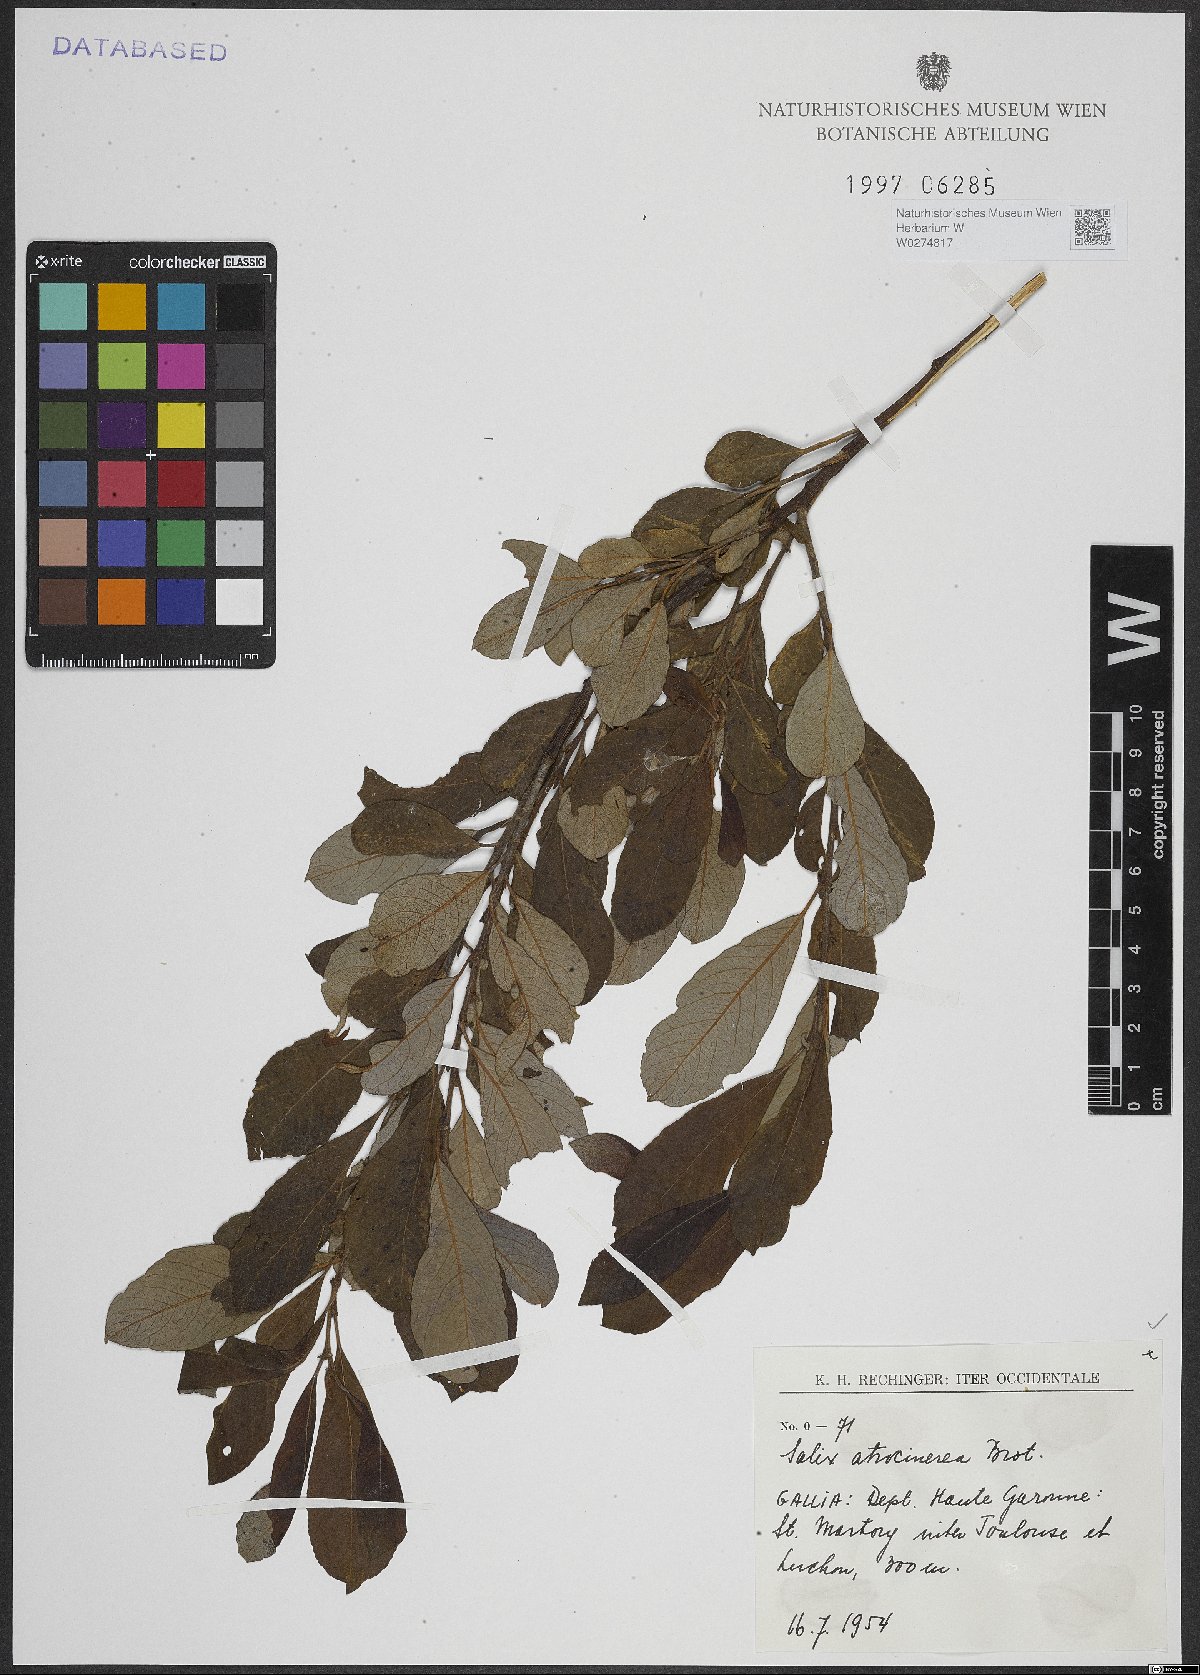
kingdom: Plantae
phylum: Tracheophyta
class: Magnoliopsida
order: Malpighiales
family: Salicaceae
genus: Salix
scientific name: Salix atrocinerea
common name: Rusty willow
